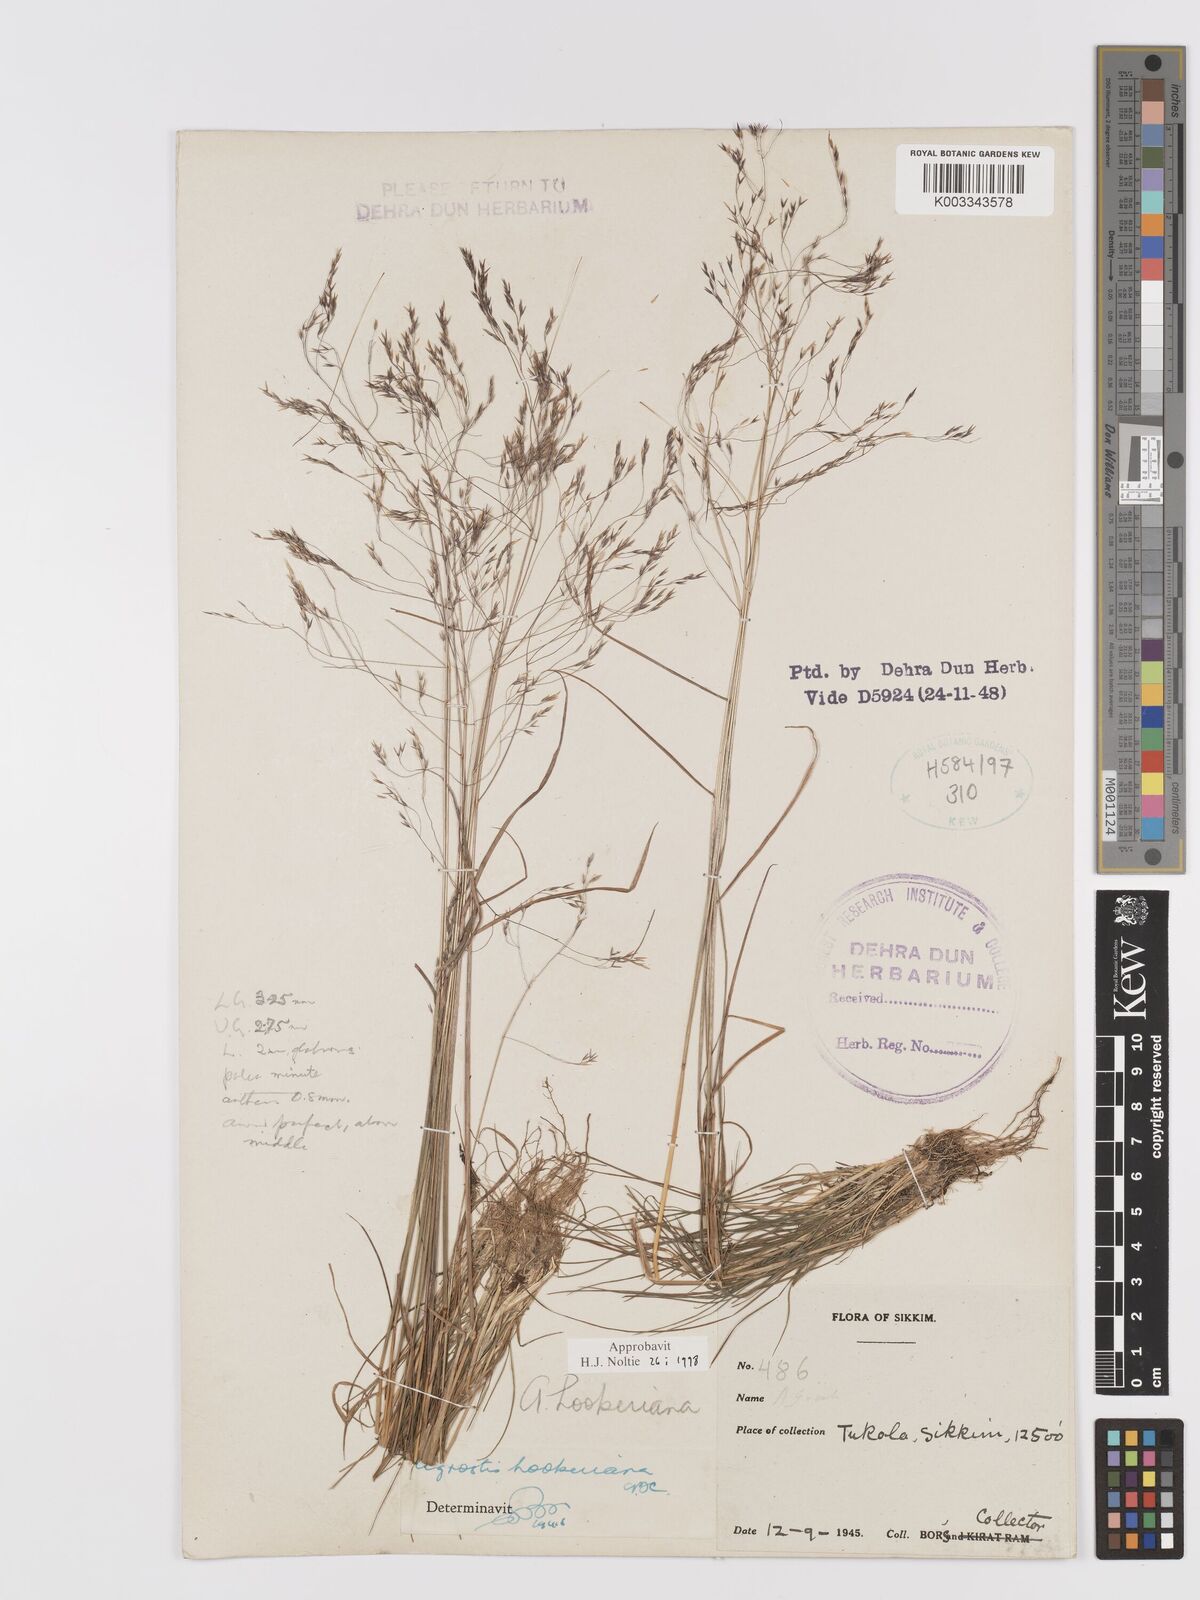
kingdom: Plantae
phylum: Tracheophyta
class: Liliopsida
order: Poales
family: Poaceae
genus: Agrostis
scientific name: Agrostis hookeriana
